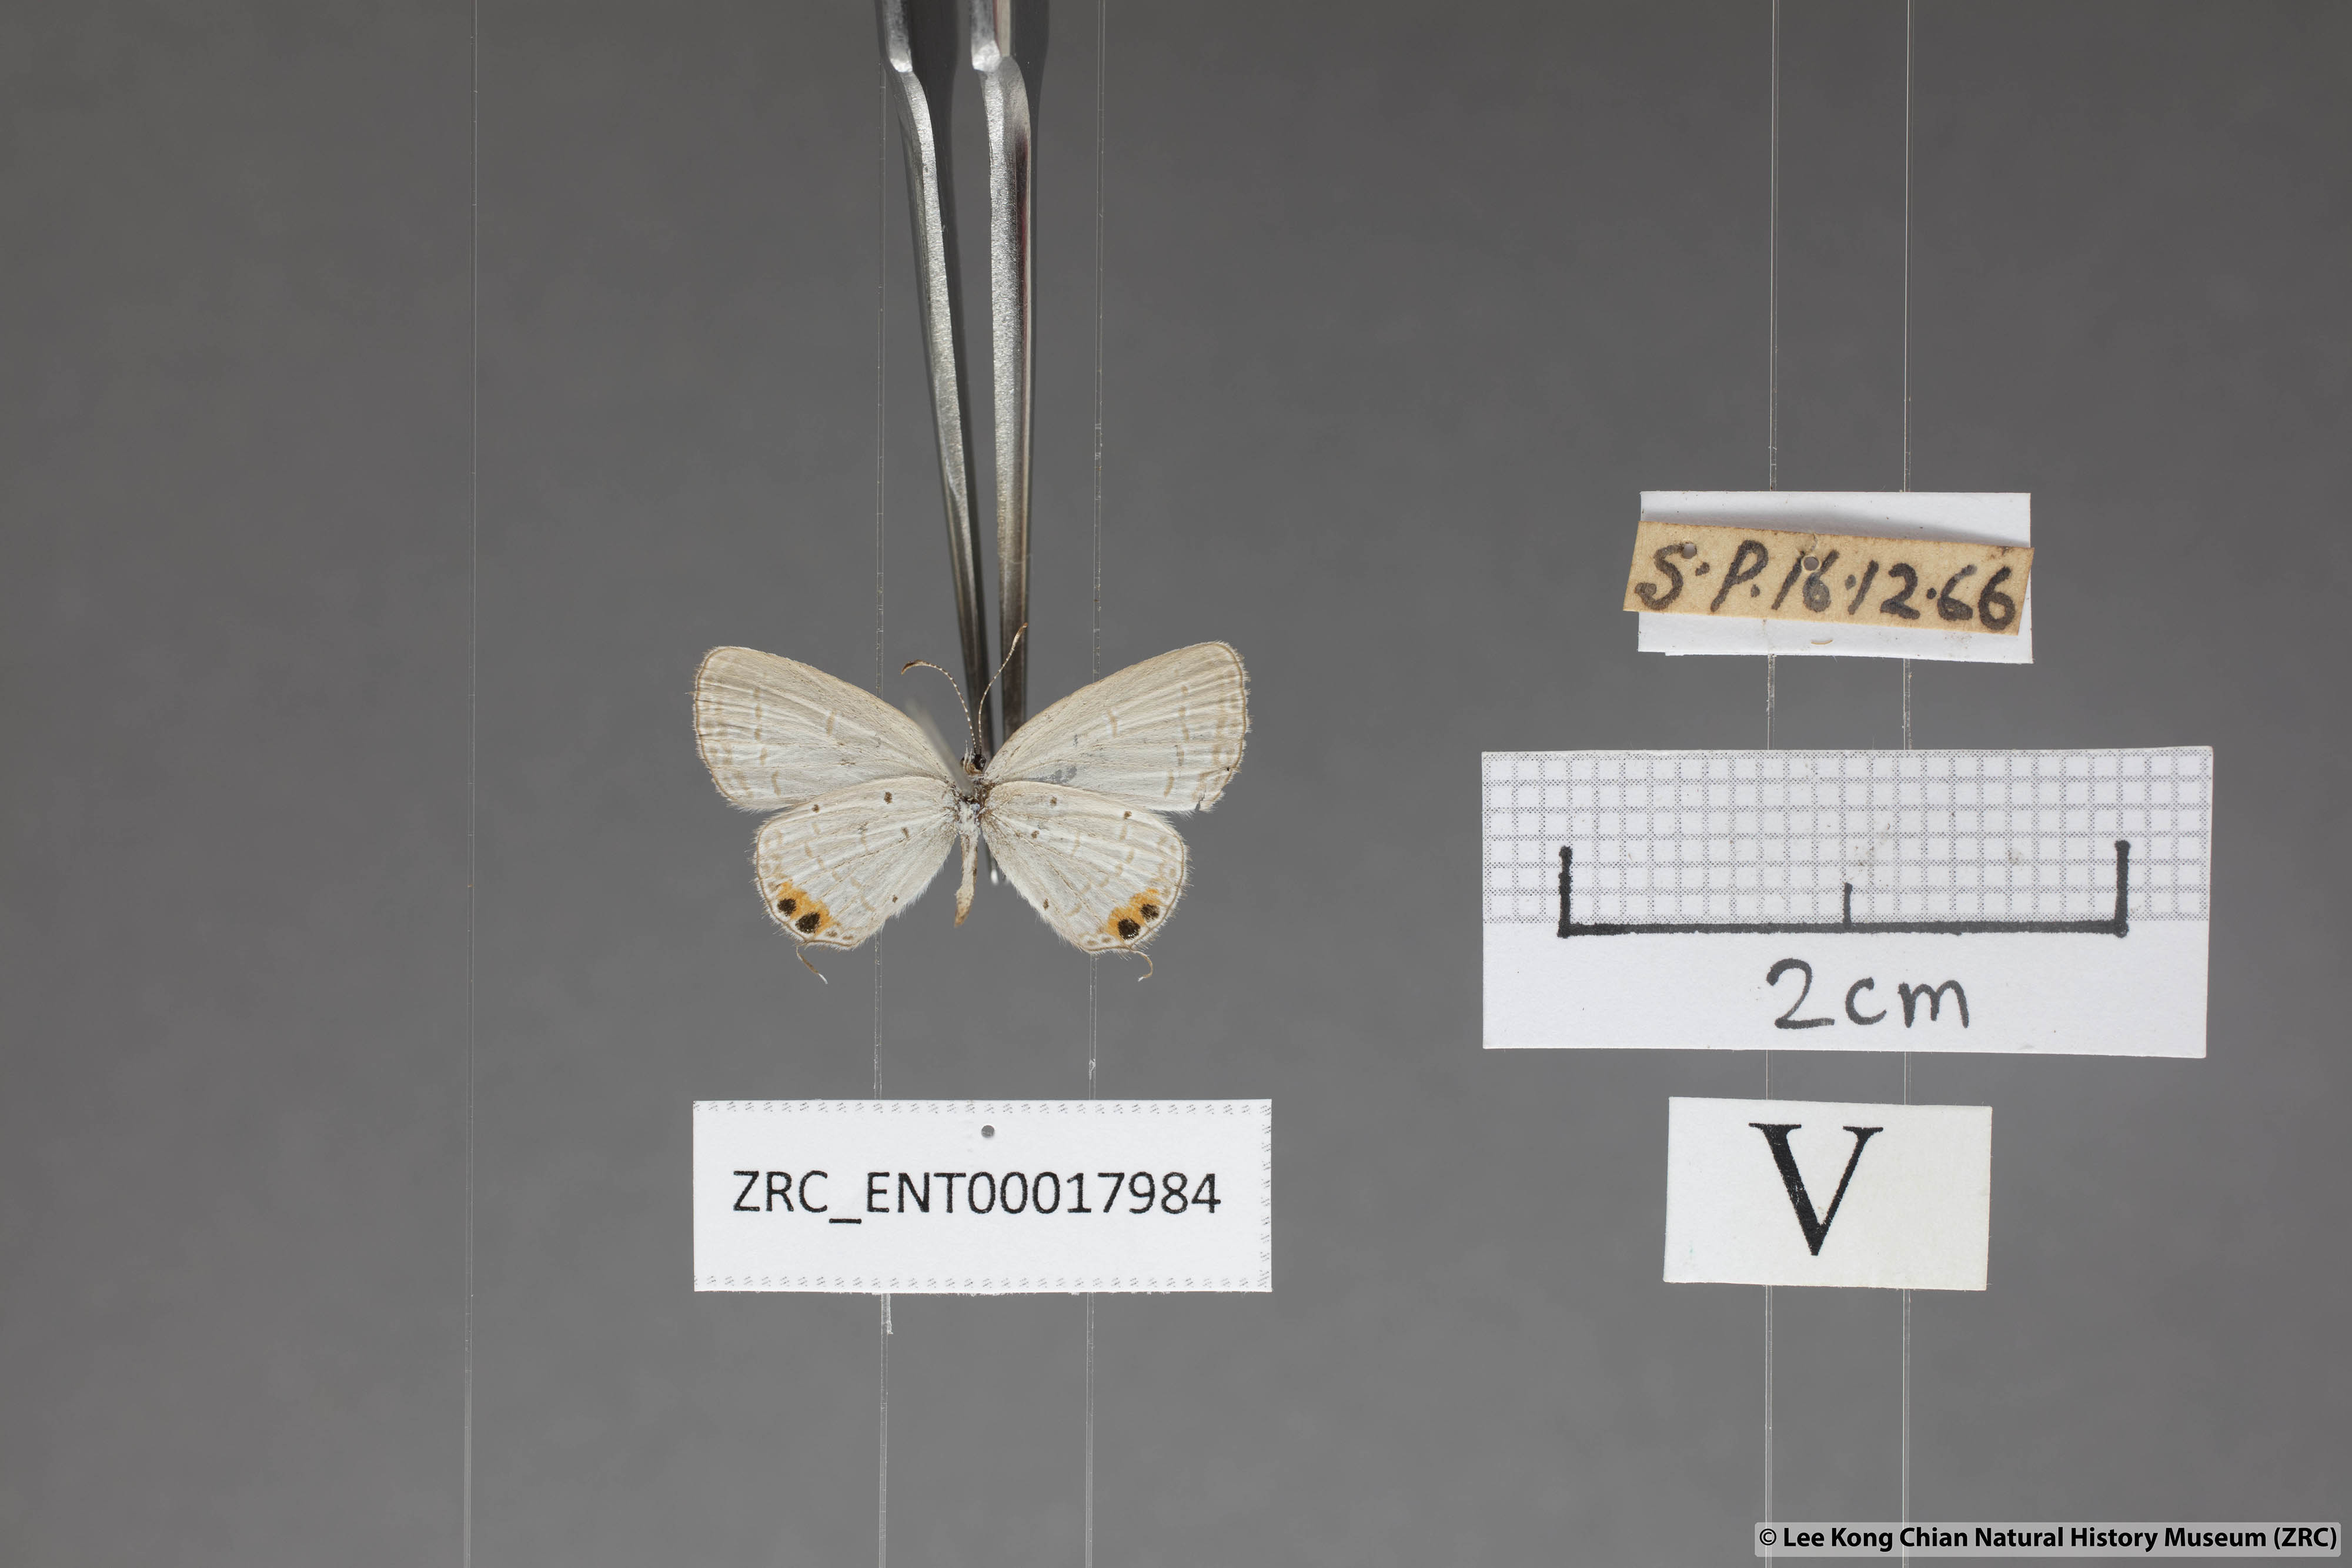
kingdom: Animalia
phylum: Arthropoda
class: Insecta
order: Lepidoptera
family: Lycaenidae
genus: Everes
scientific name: Everes lacturnus
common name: Orange-tipped pea-blue
